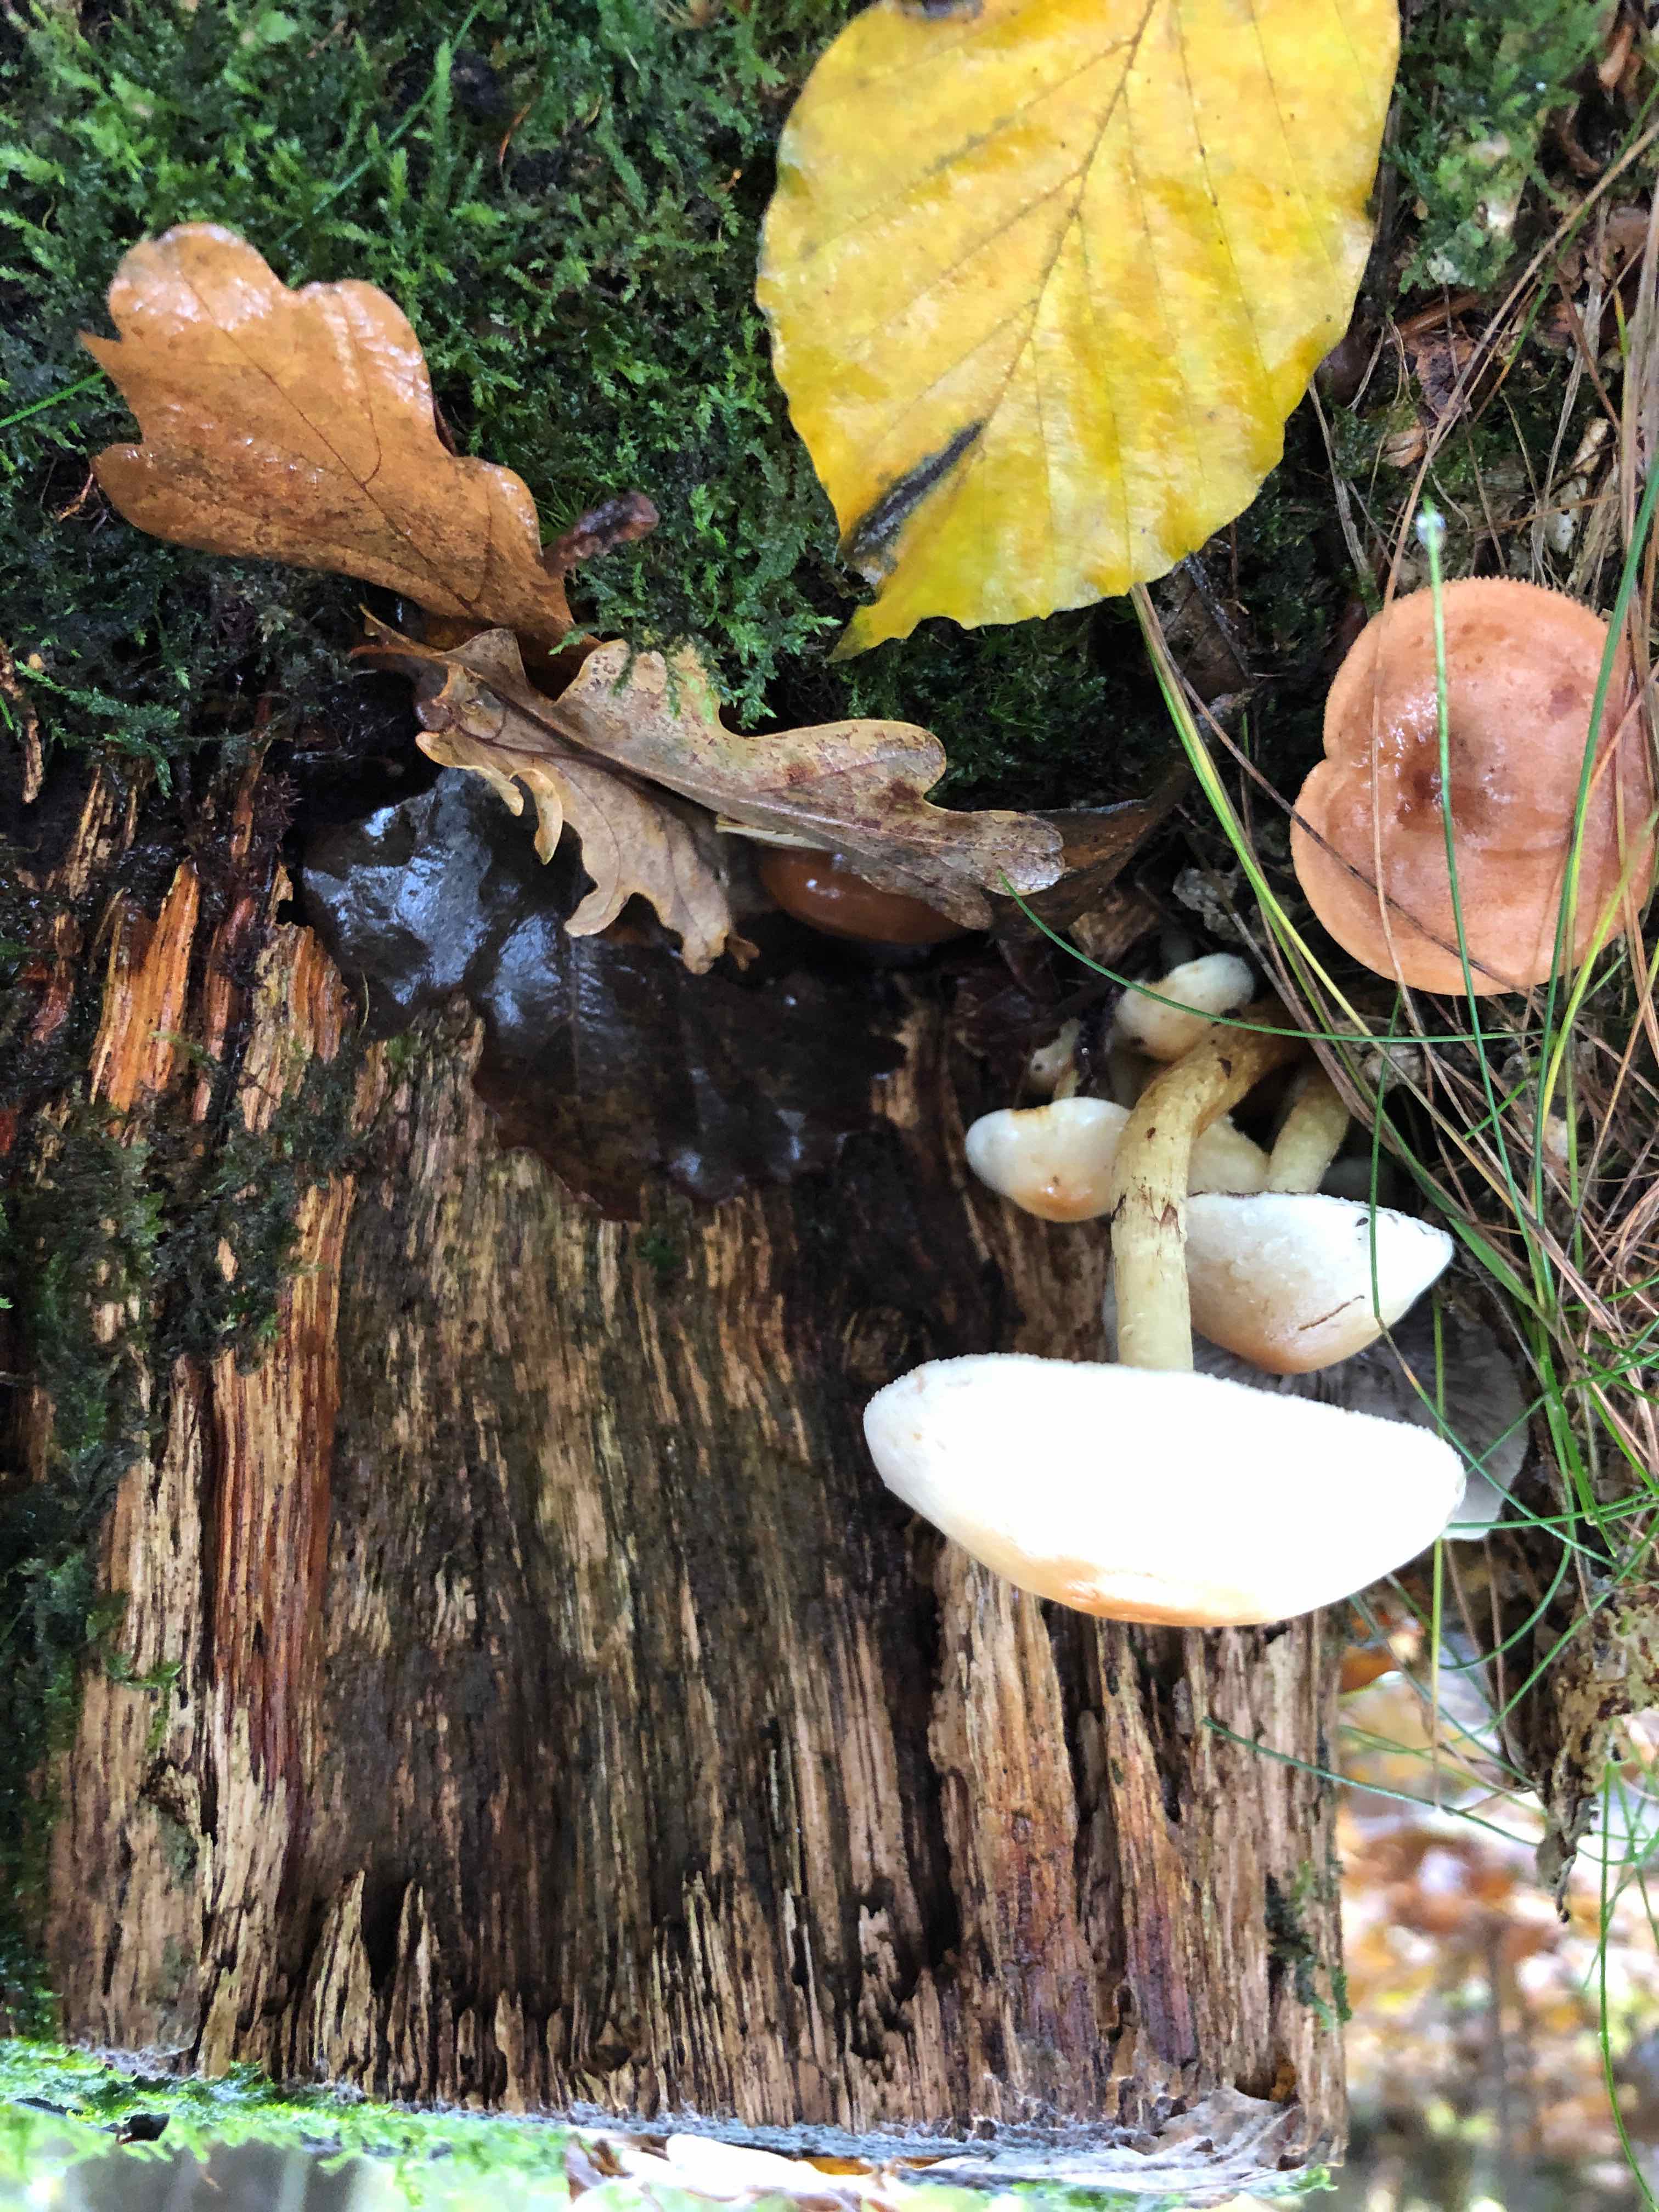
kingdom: Fungi
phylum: Basidiomycota
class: Agaricomycetes
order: Agaricales
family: Strophariaceae
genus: Hypholoma
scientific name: Hypholoma fasciculare
